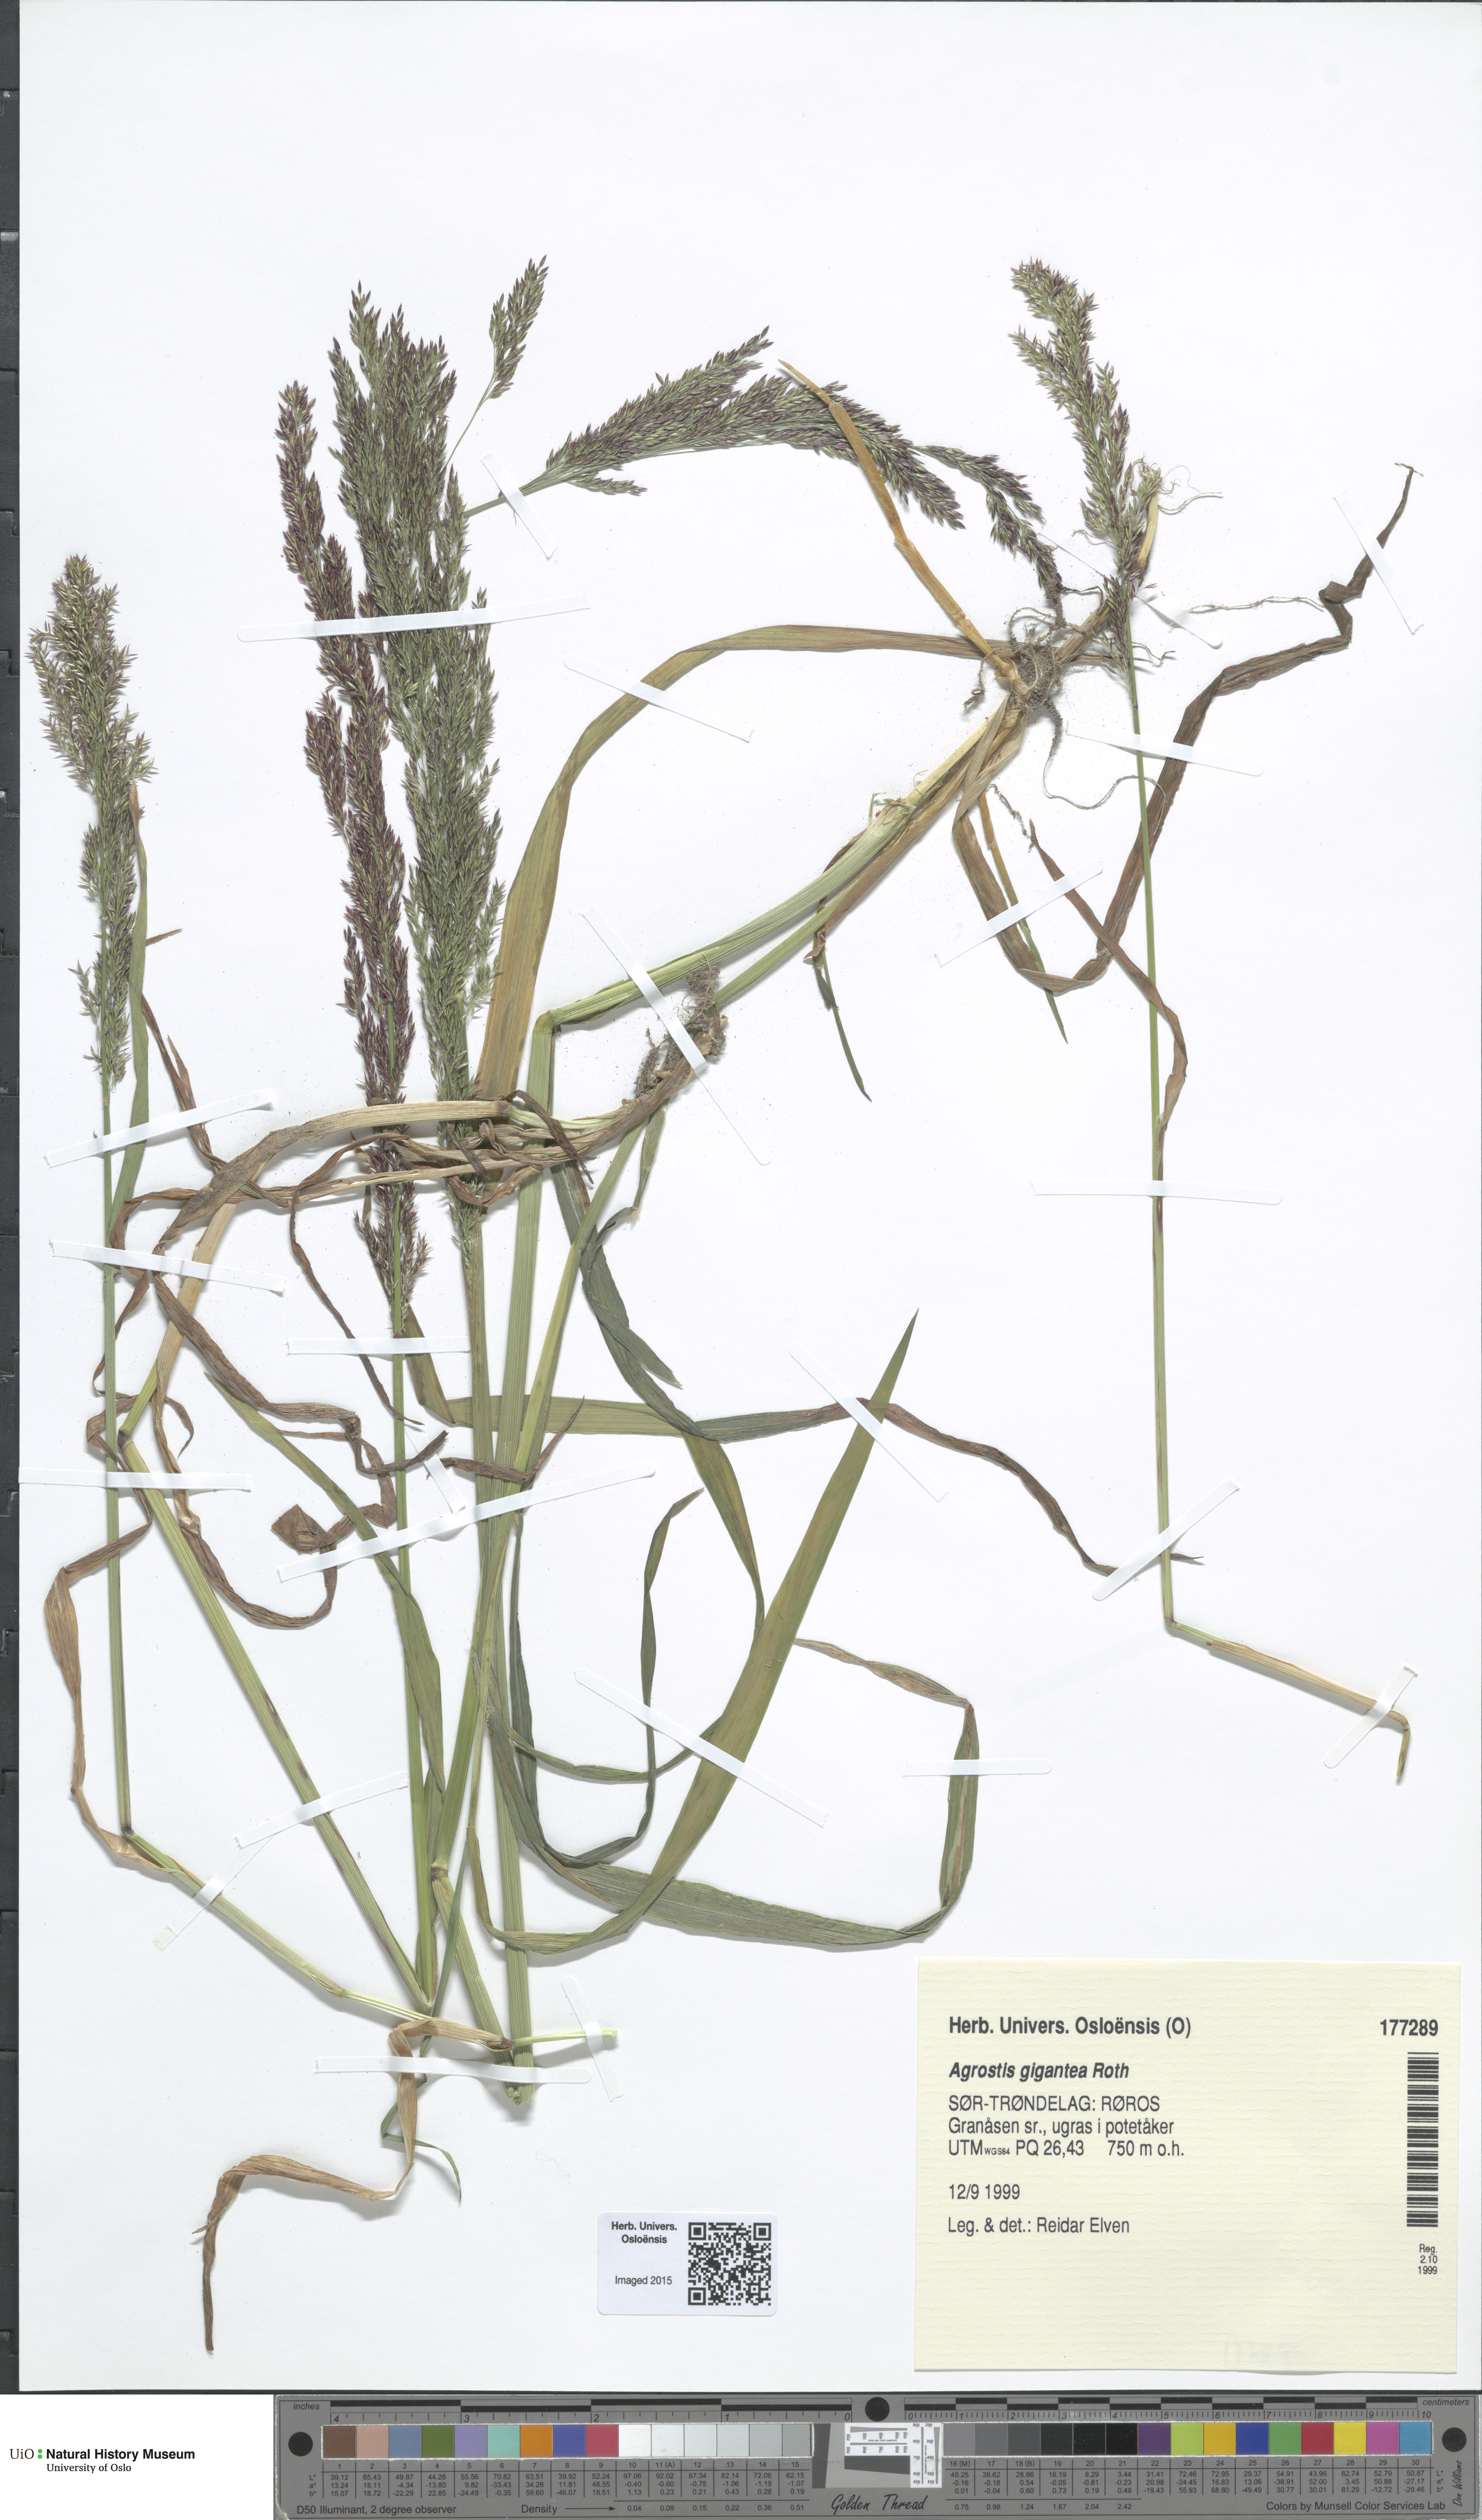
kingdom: Plantae
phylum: Tracheophyta
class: Liliopsida
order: Poales
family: Poaceae
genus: Agrostis
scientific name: Agrostis gigantea
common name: Black bent
